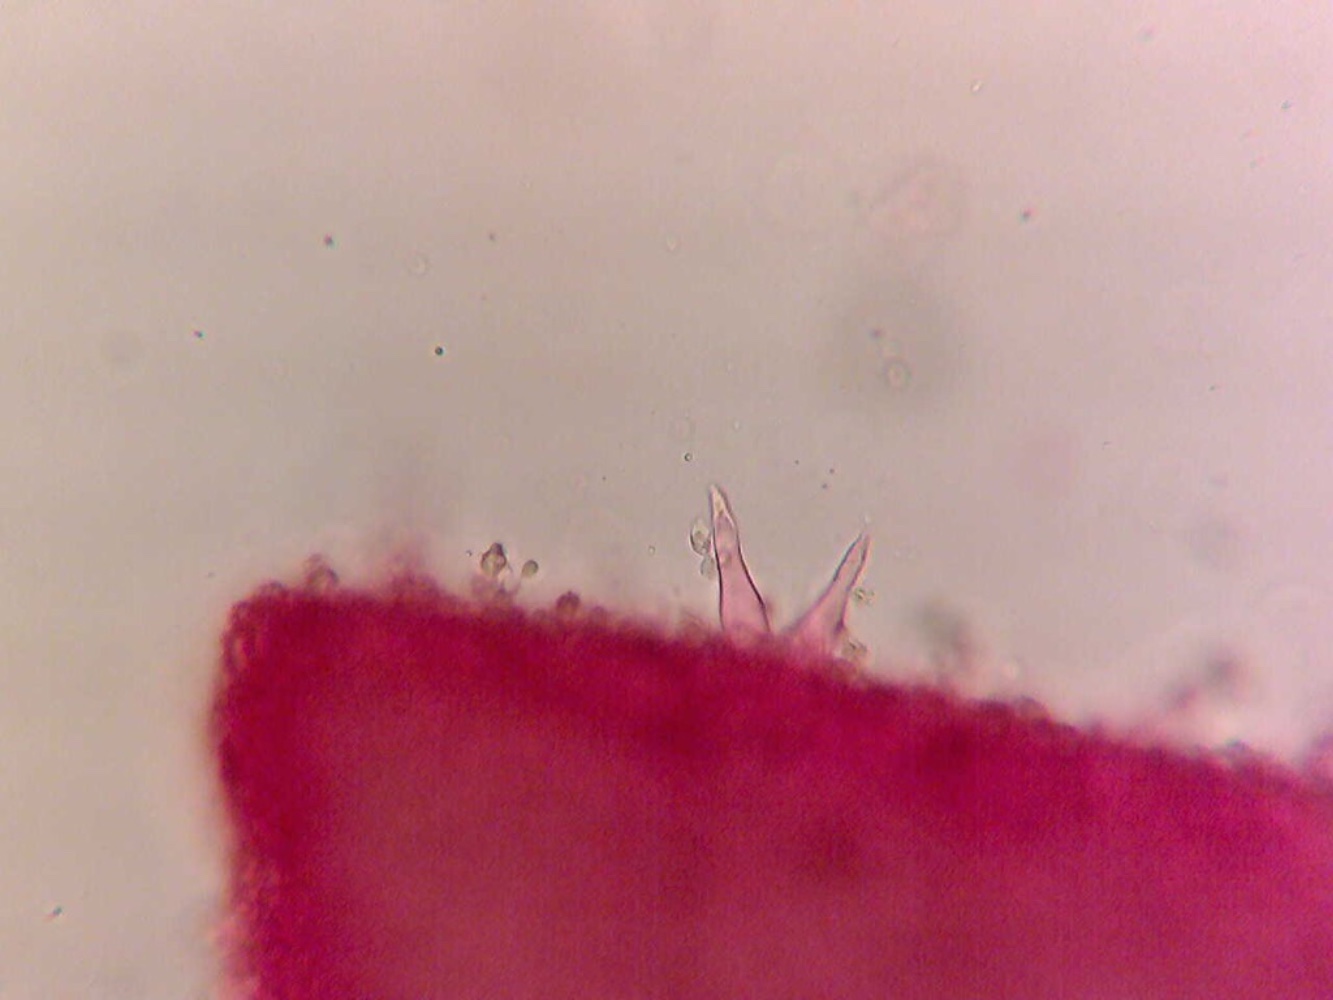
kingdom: Fungi
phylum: Basidiomycota
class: Agaricomycetes
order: Agaricales
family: Tricholomataceae
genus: Mycenella
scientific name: Mycenella trachyspora
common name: rødprikket dughat
